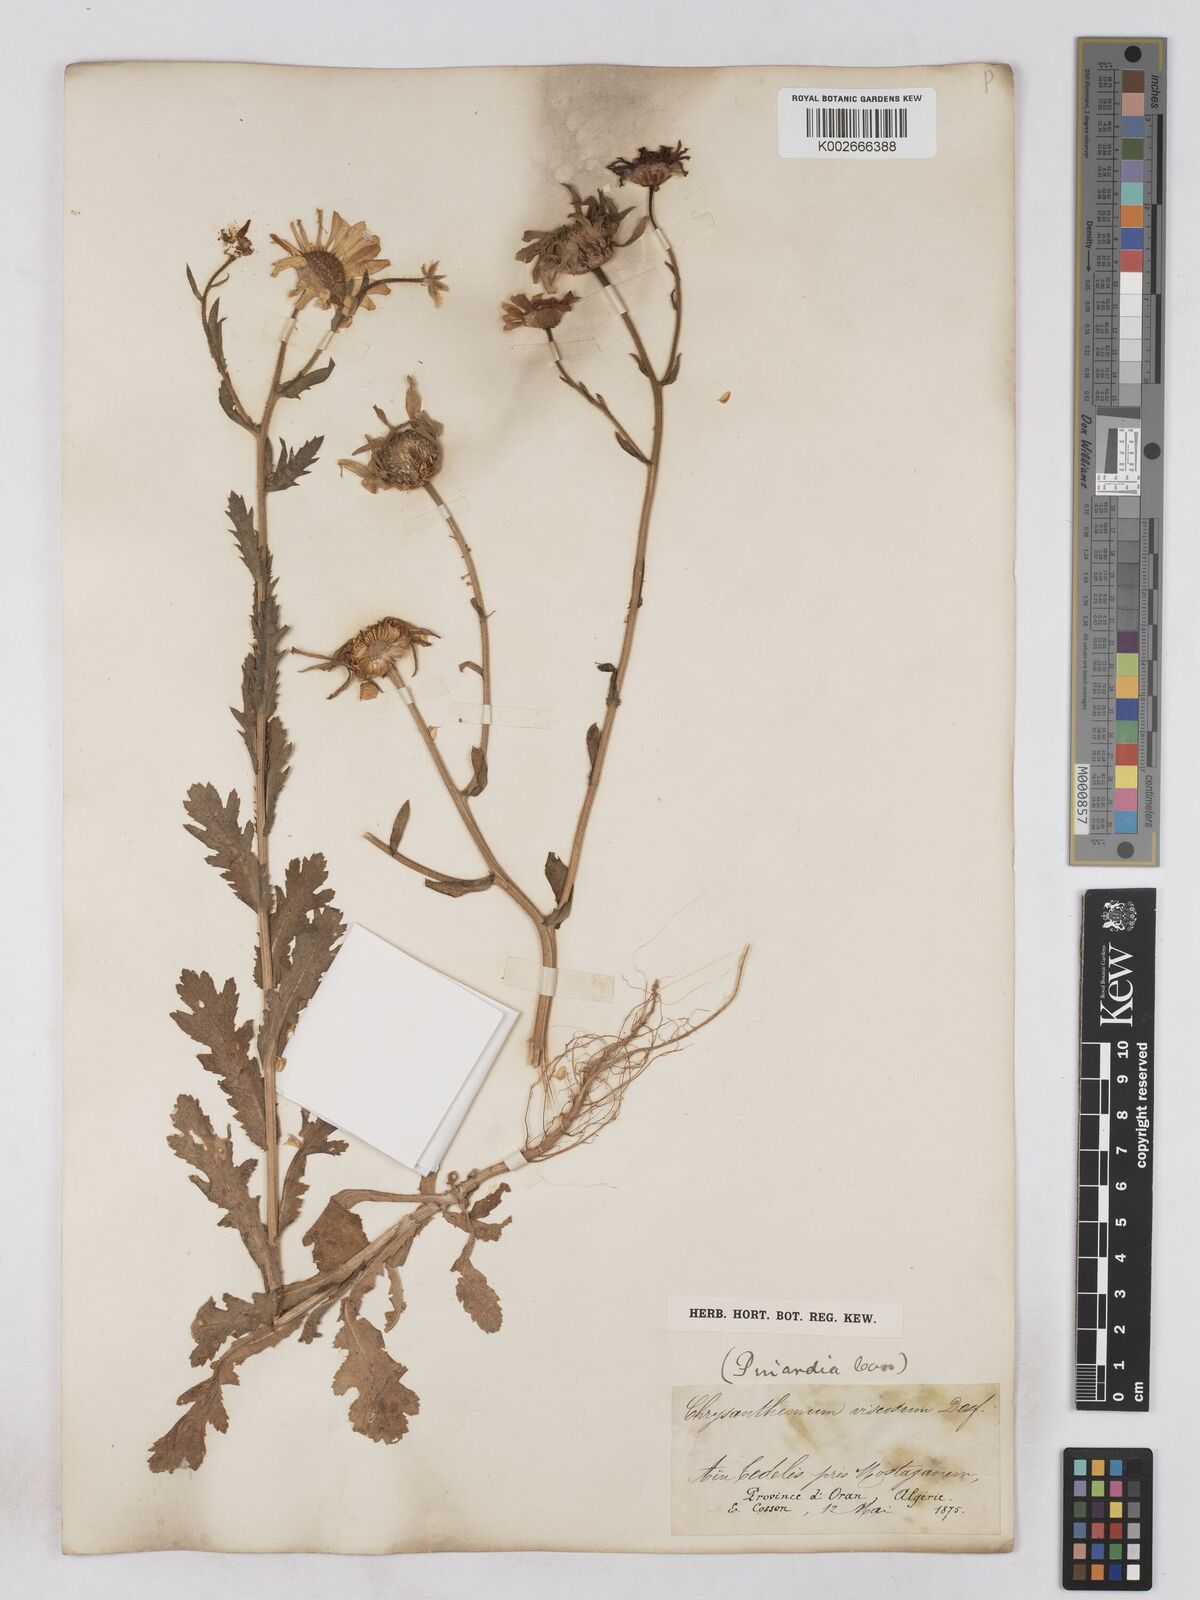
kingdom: Plantae
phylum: Tracheophyta
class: Magnoliopsida
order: Asterales
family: Asteraceae
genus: Heteranthemis
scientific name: Heteranthemis
